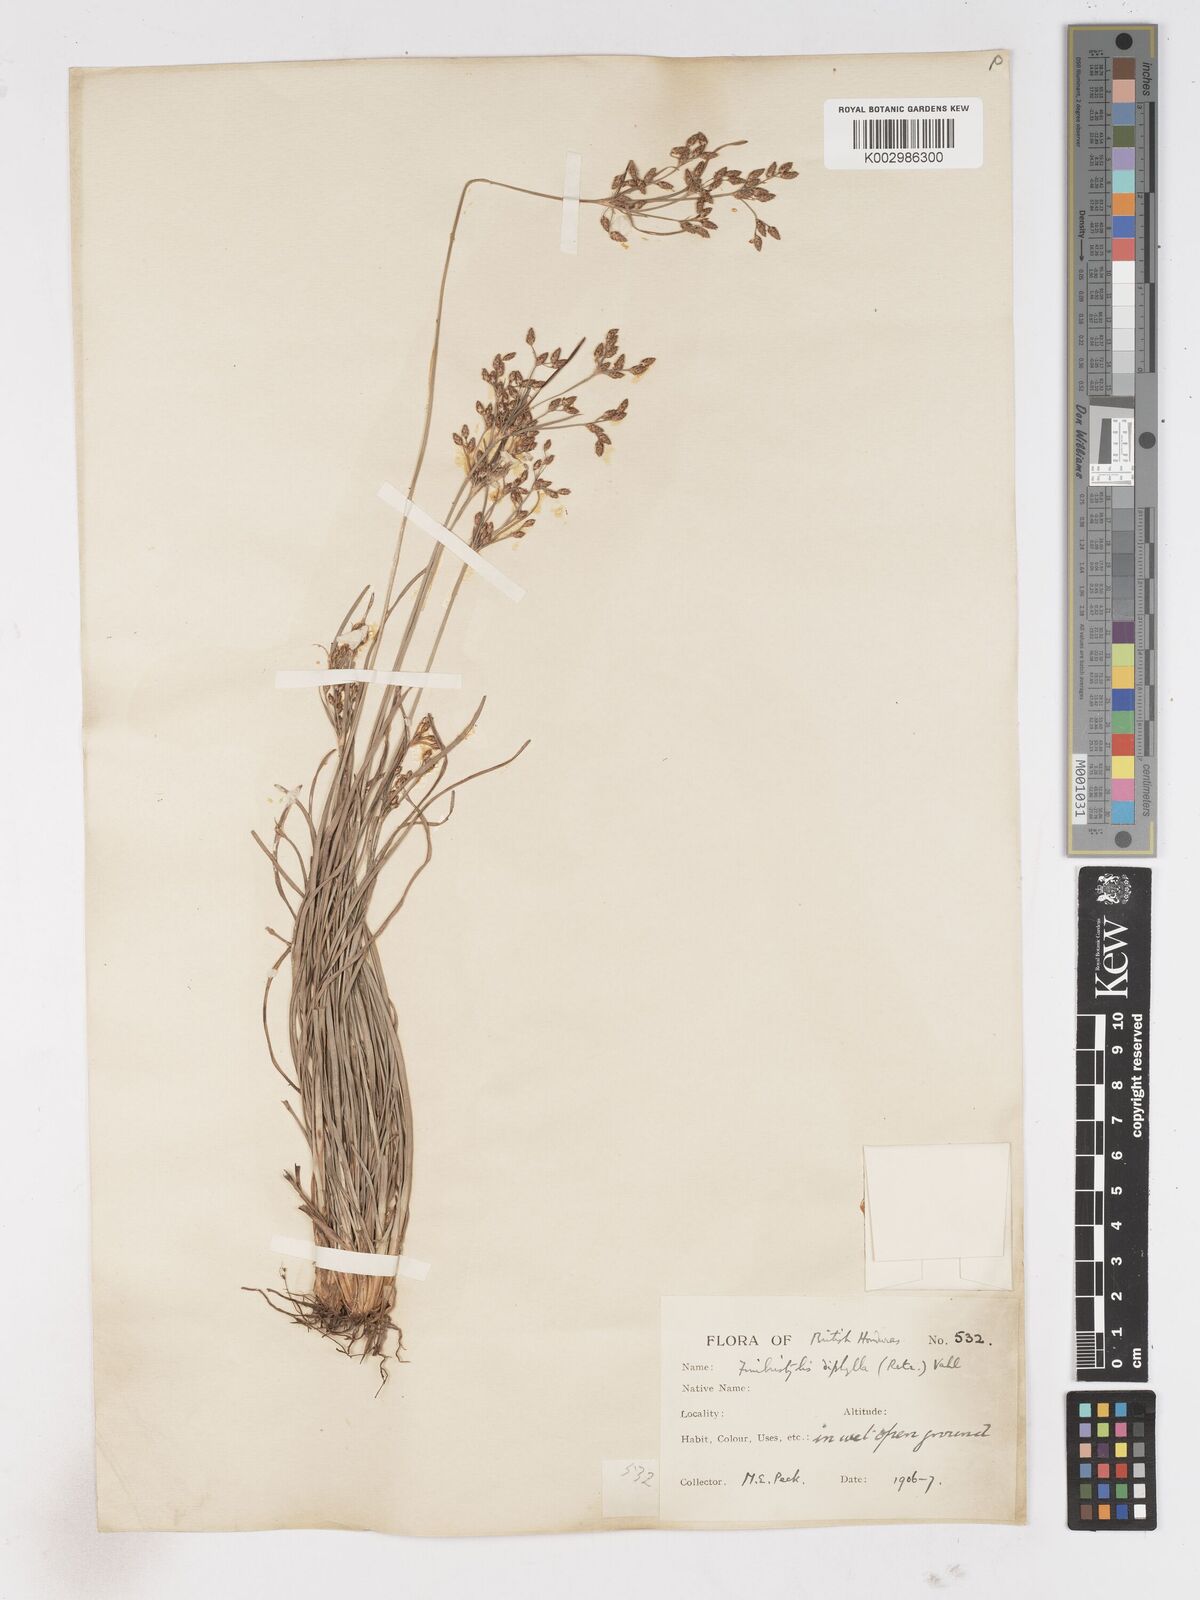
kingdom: Plantae
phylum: Tracheophyta
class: Liliopsida
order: Poales
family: Cyperaceae
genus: Fimbristylis
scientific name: Fimbristylis dichotoma
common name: Forked fimbry
